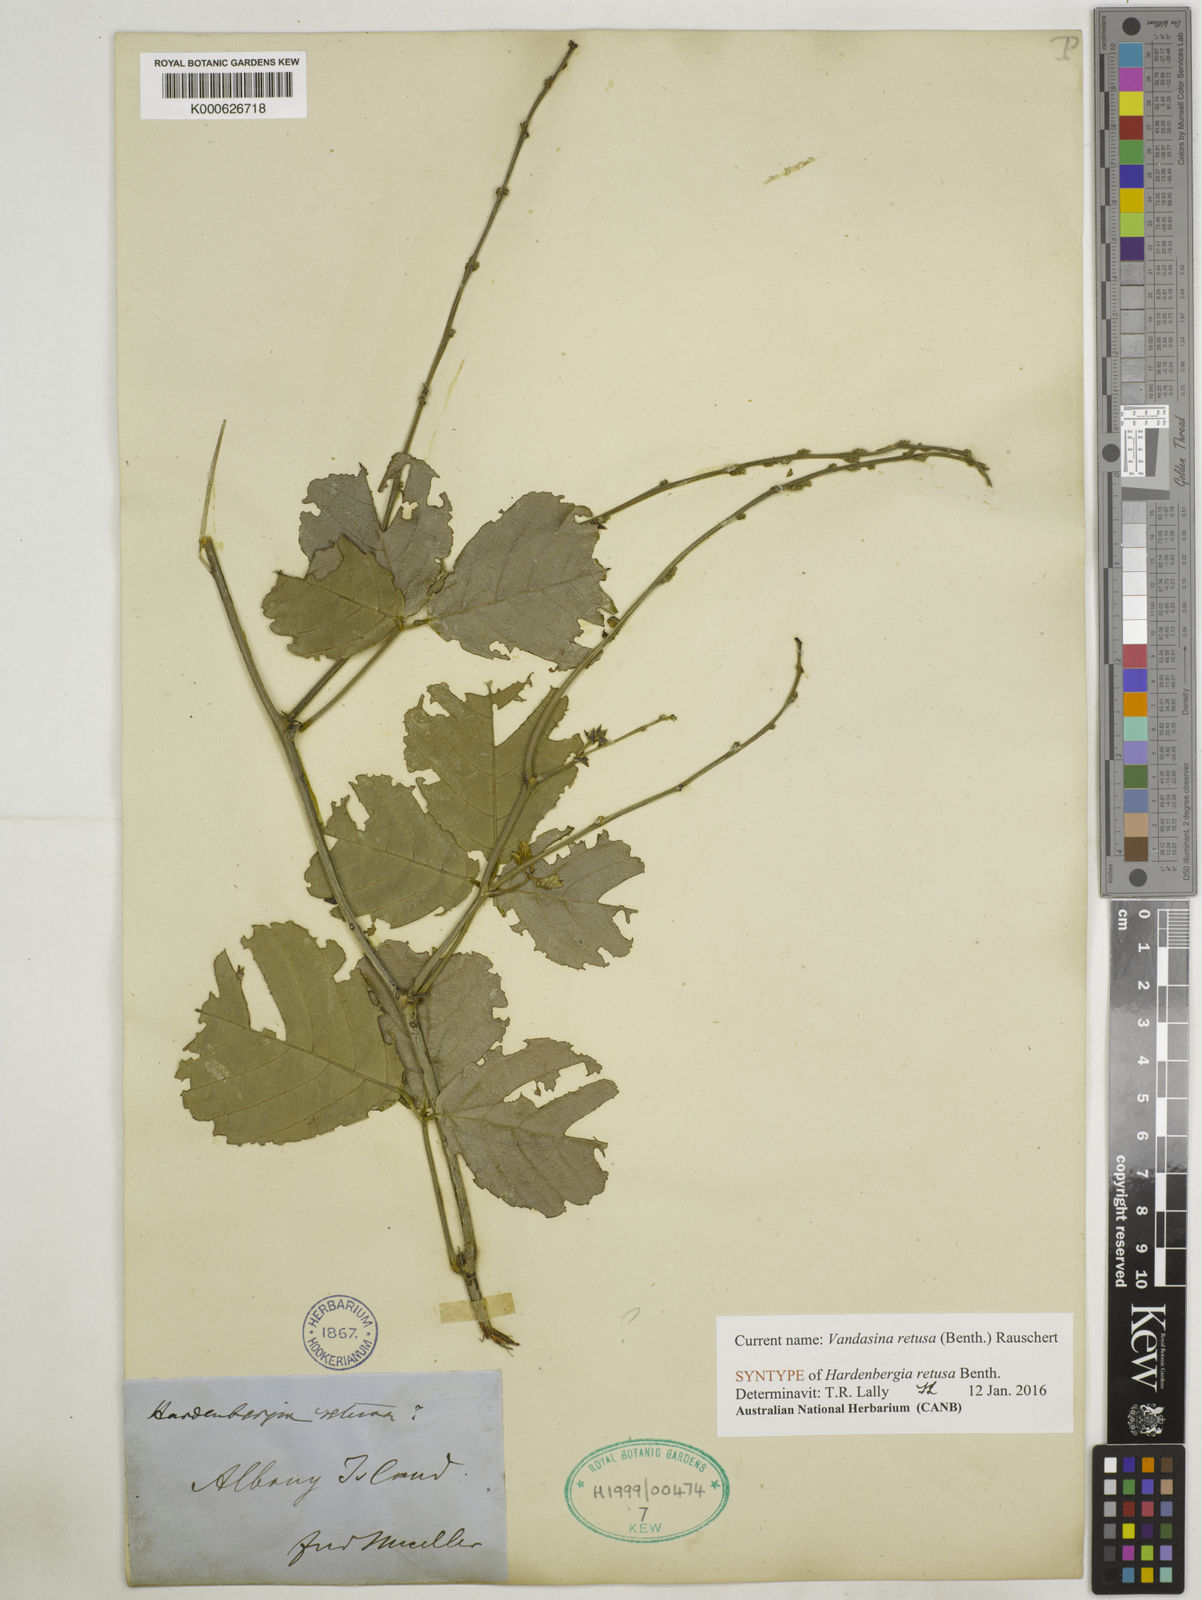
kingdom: Plantae
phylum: Tracheophyta
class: Magnoliopsida
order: Fabales
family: Fabaceae
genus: Vandasina
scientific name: Vandasina retusa
